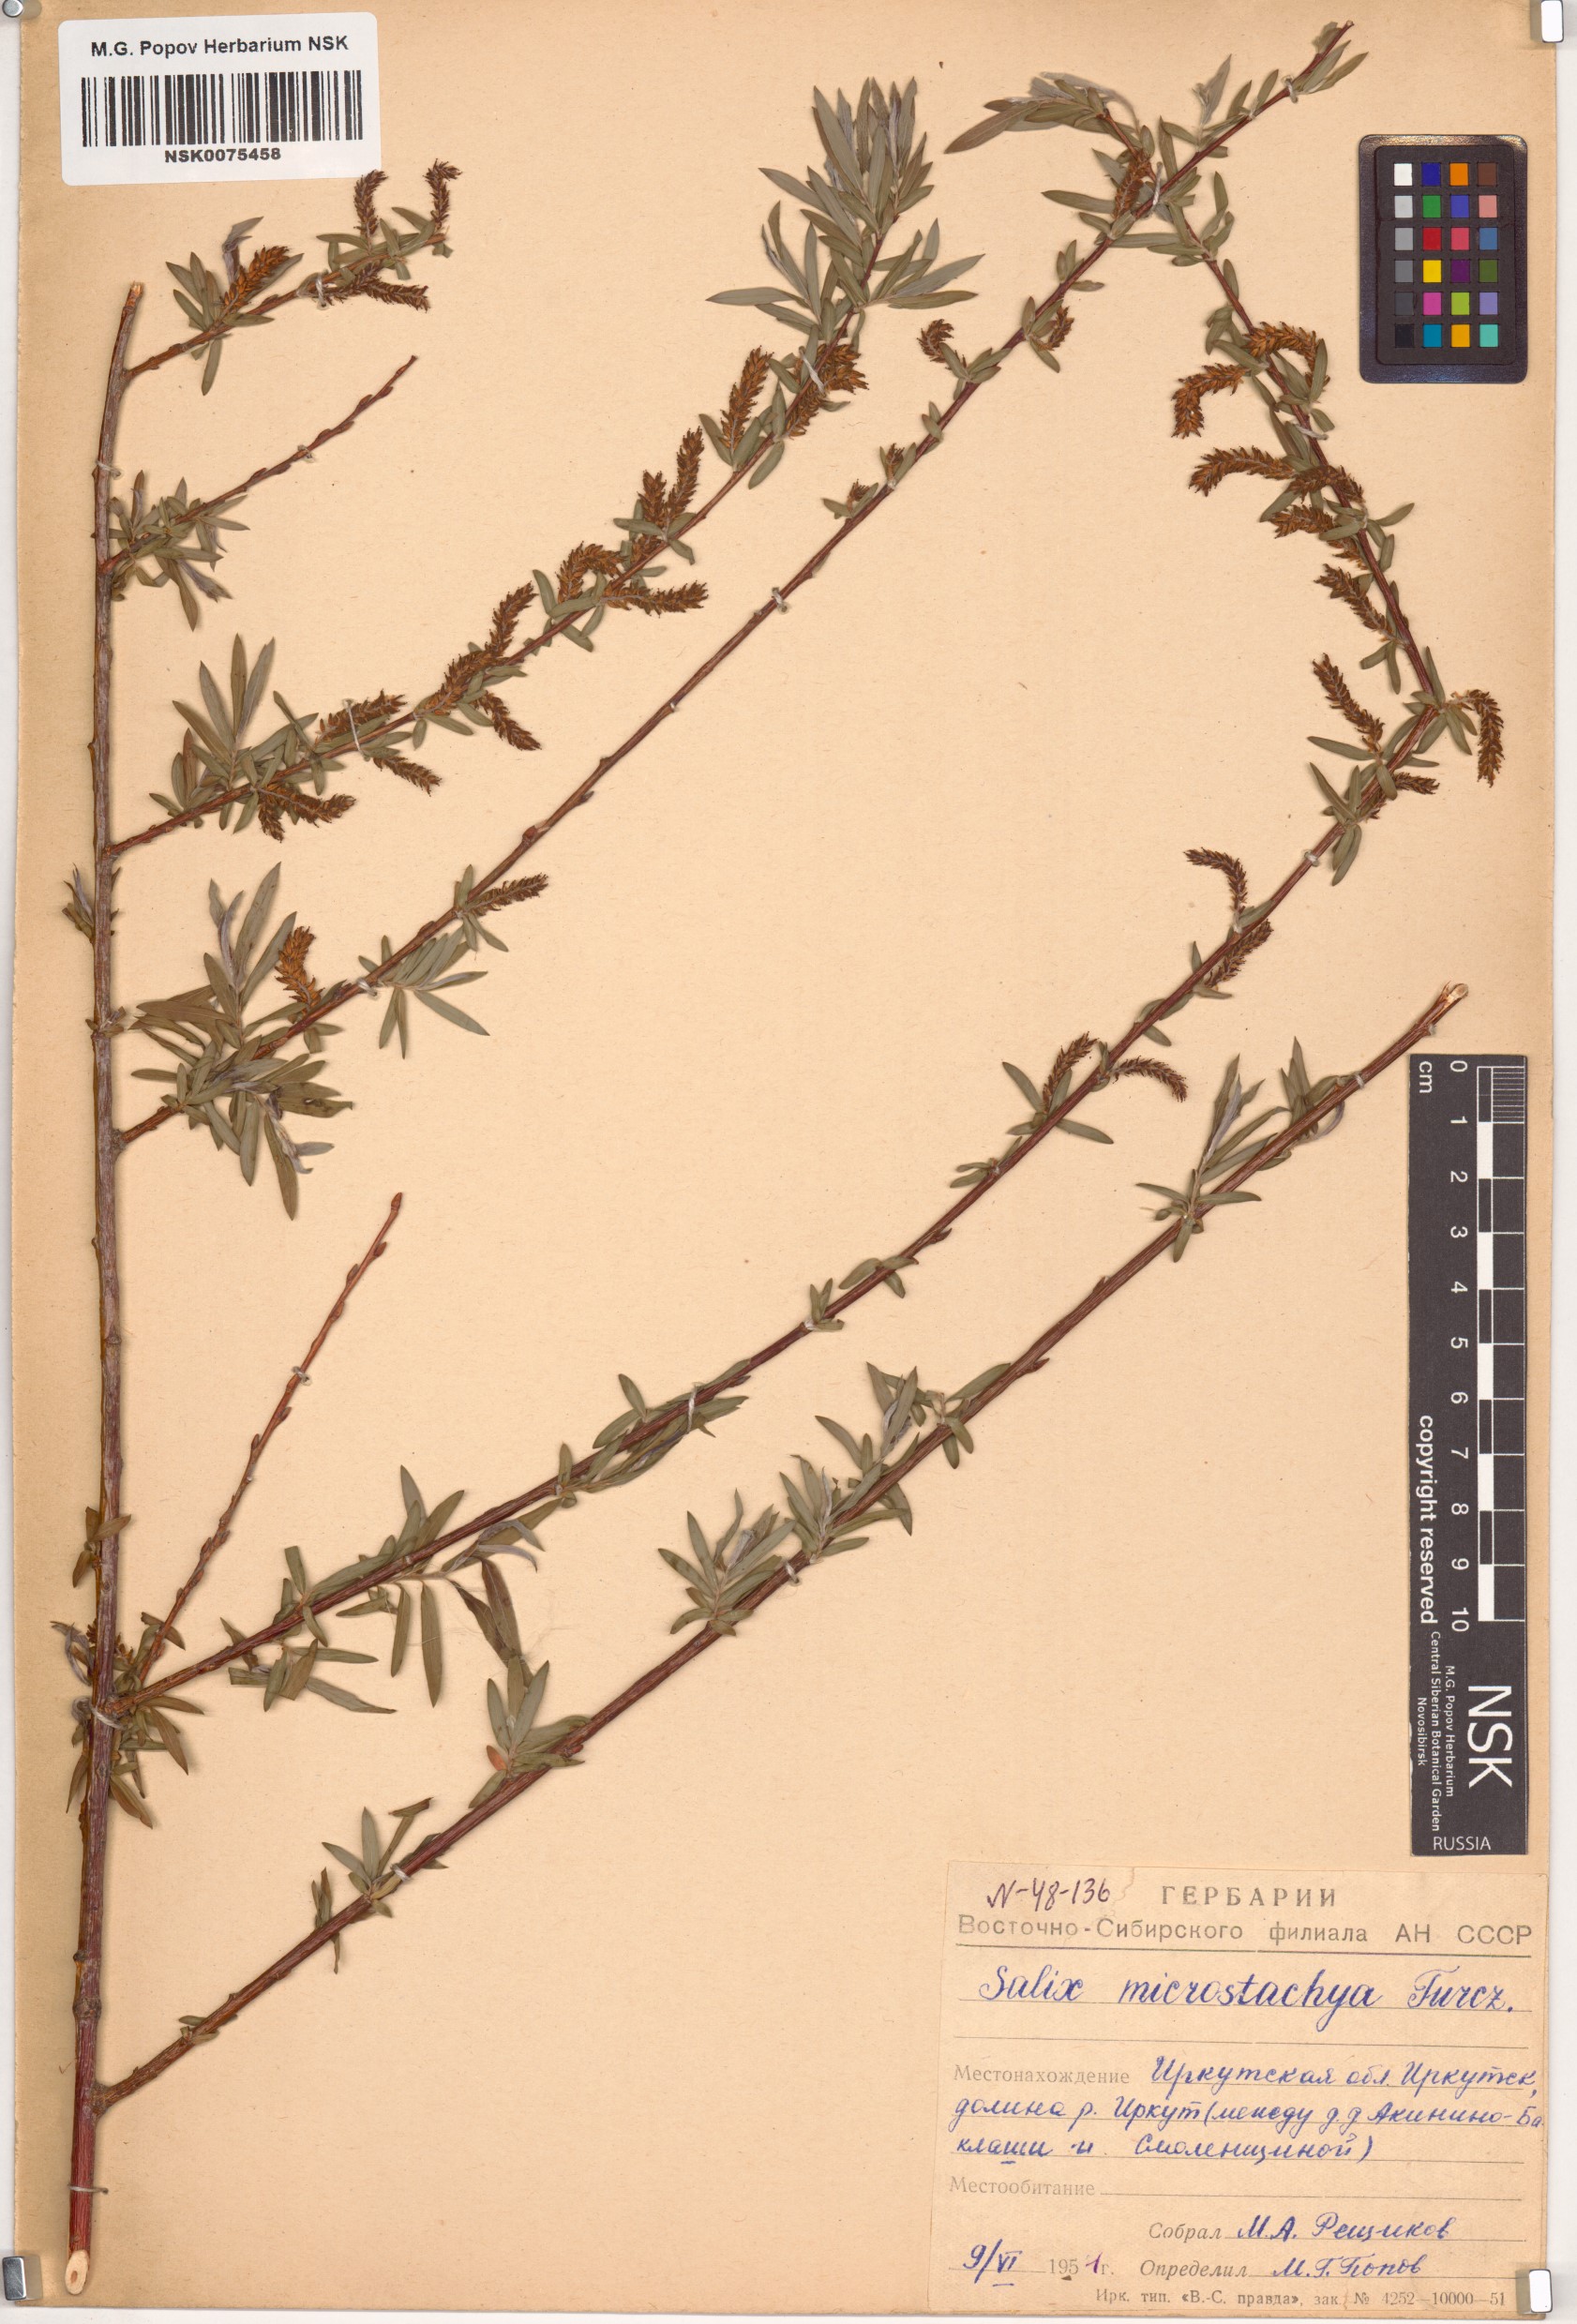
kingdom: Plantae
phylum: Tracheophyta
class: Magnoliopsida
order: Malpighiales
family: Salicaceae
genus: Salix
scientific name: Salix microstachya
